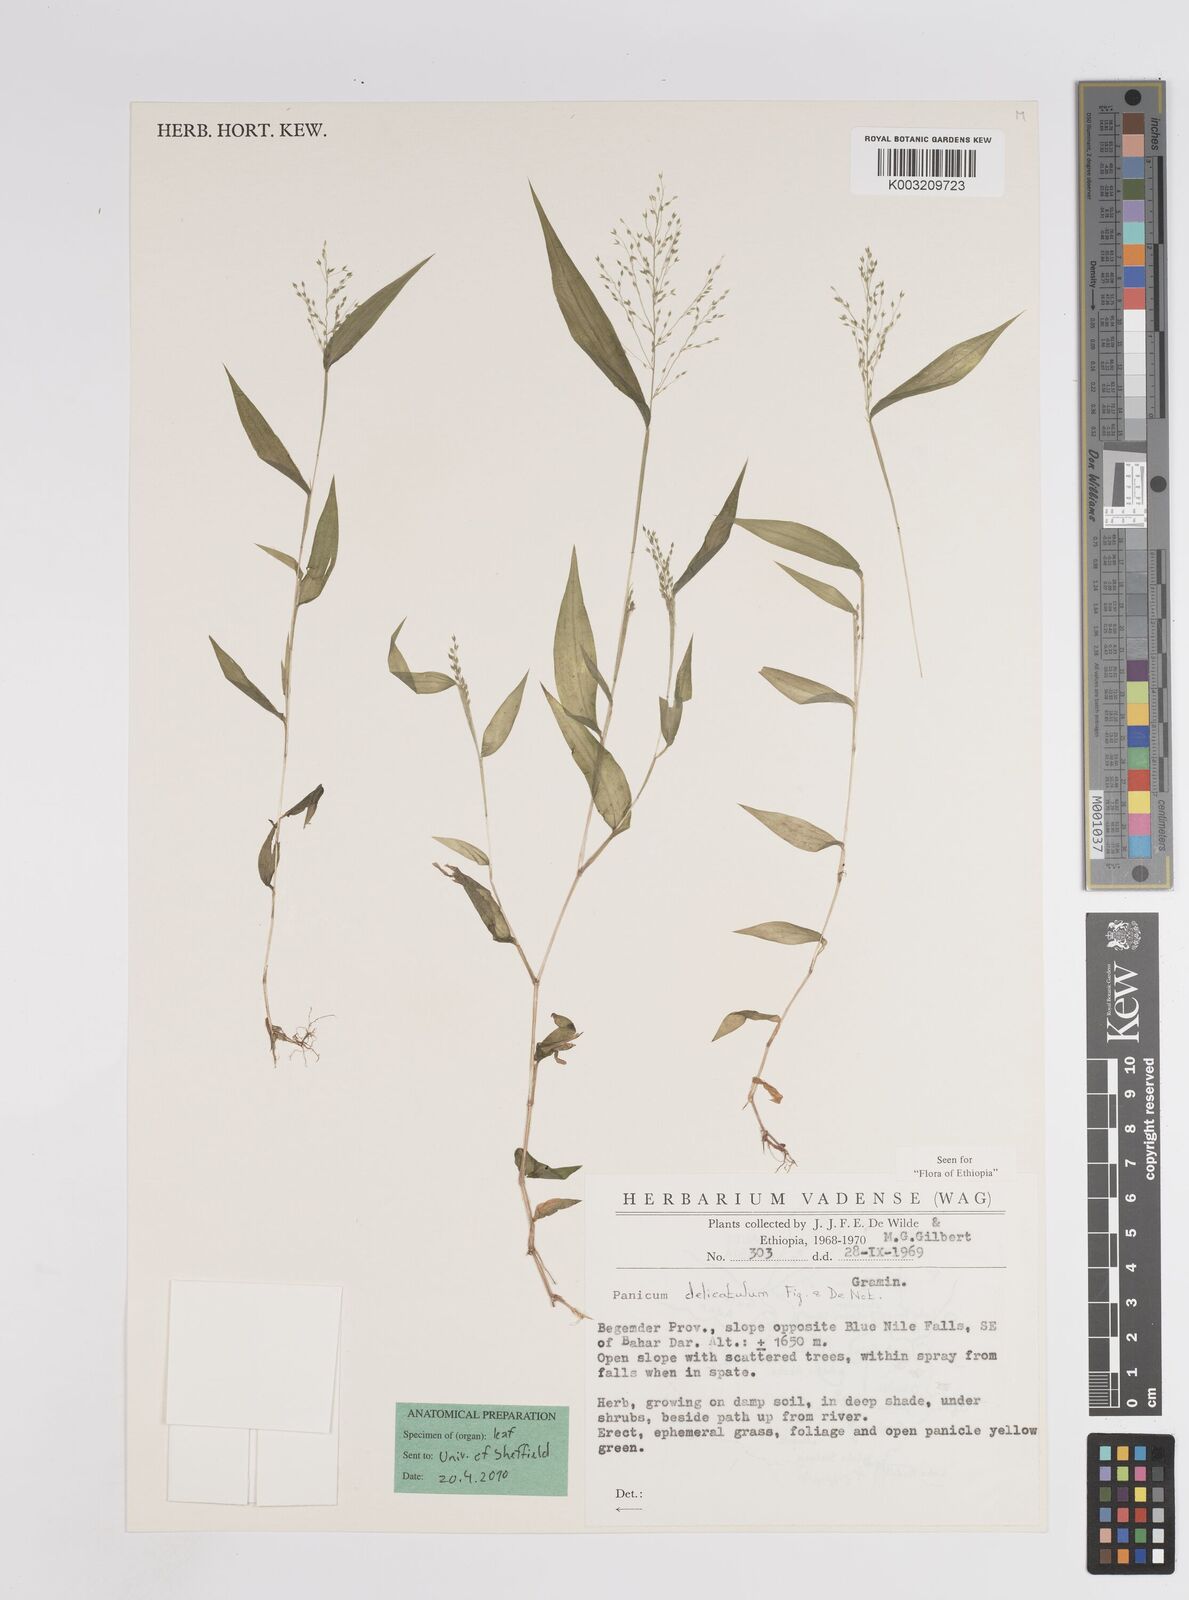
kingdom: Plantae
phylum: Tracheophyta
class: Liliopsida
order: Poales
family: Poaceae
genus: Panicum
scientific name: Panicum delicatulum
